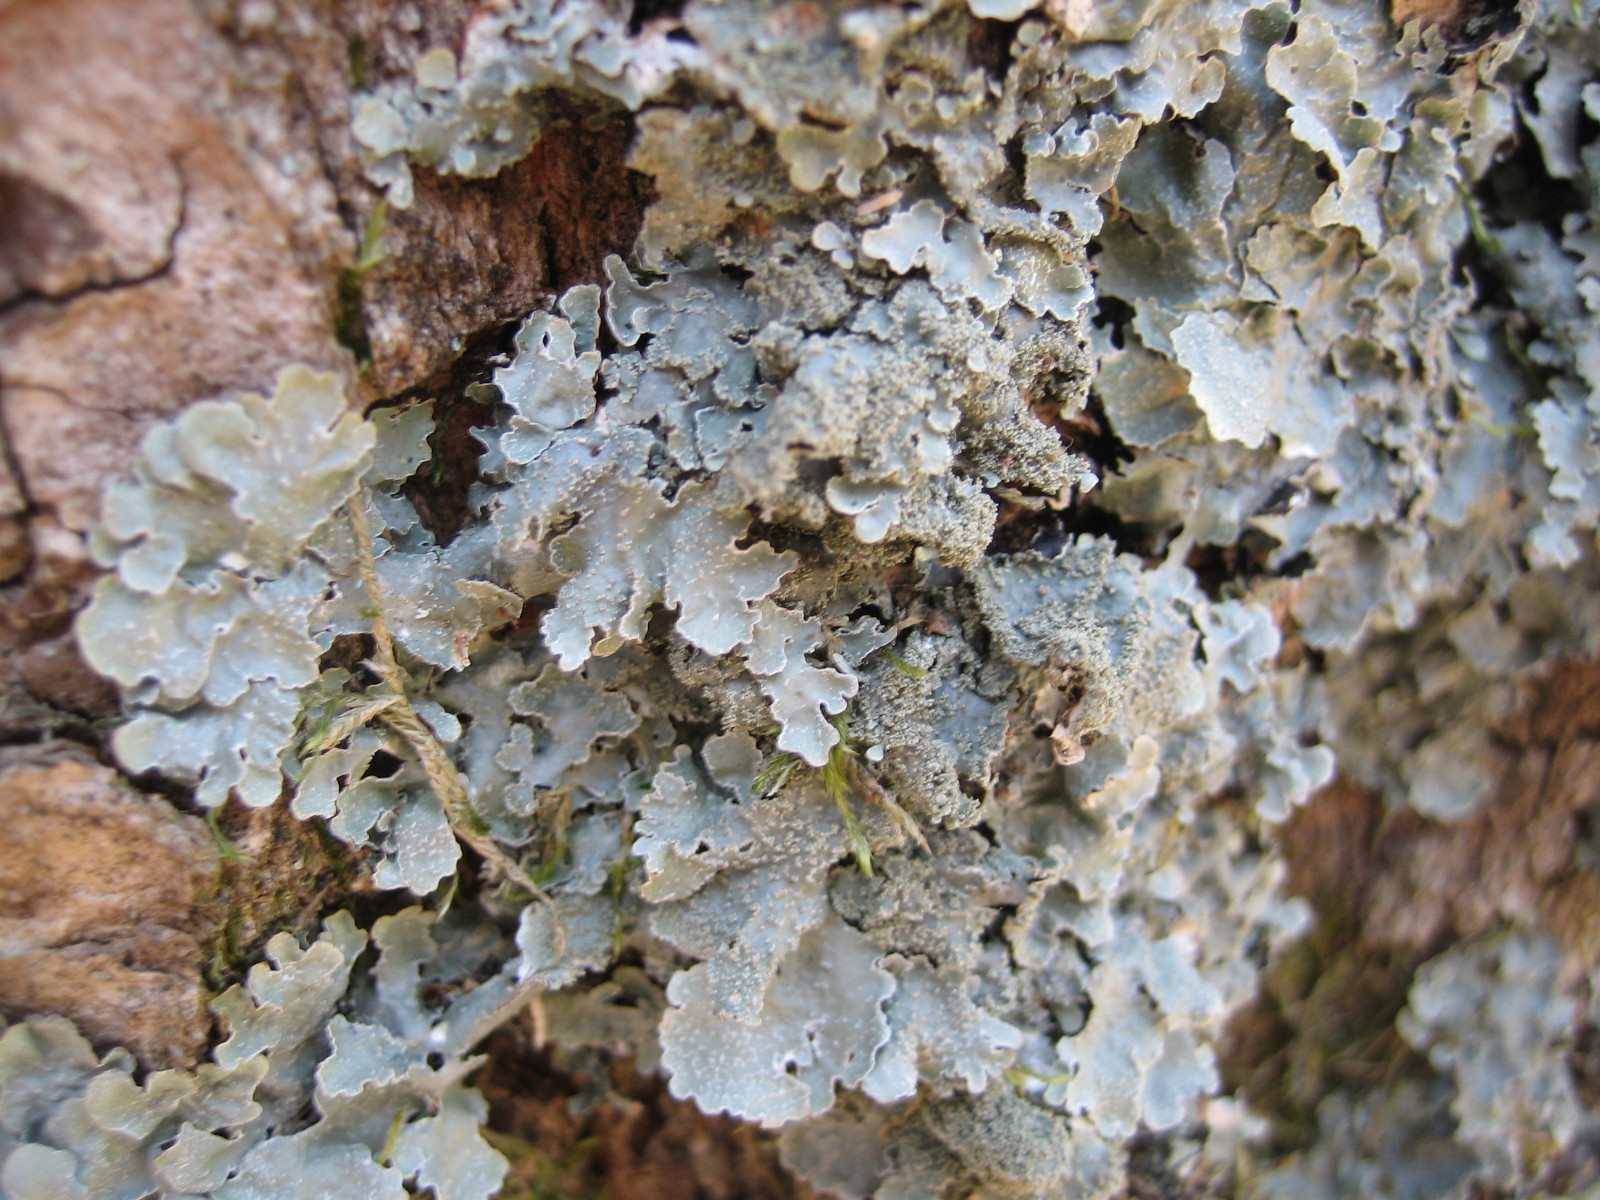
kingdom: Fungi
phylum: Ascomycota
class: Lecanoromycetes
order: Lecanorales
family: Parmeliaceae
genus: Parmelia
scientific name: Parmelia
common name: farve-skållav
